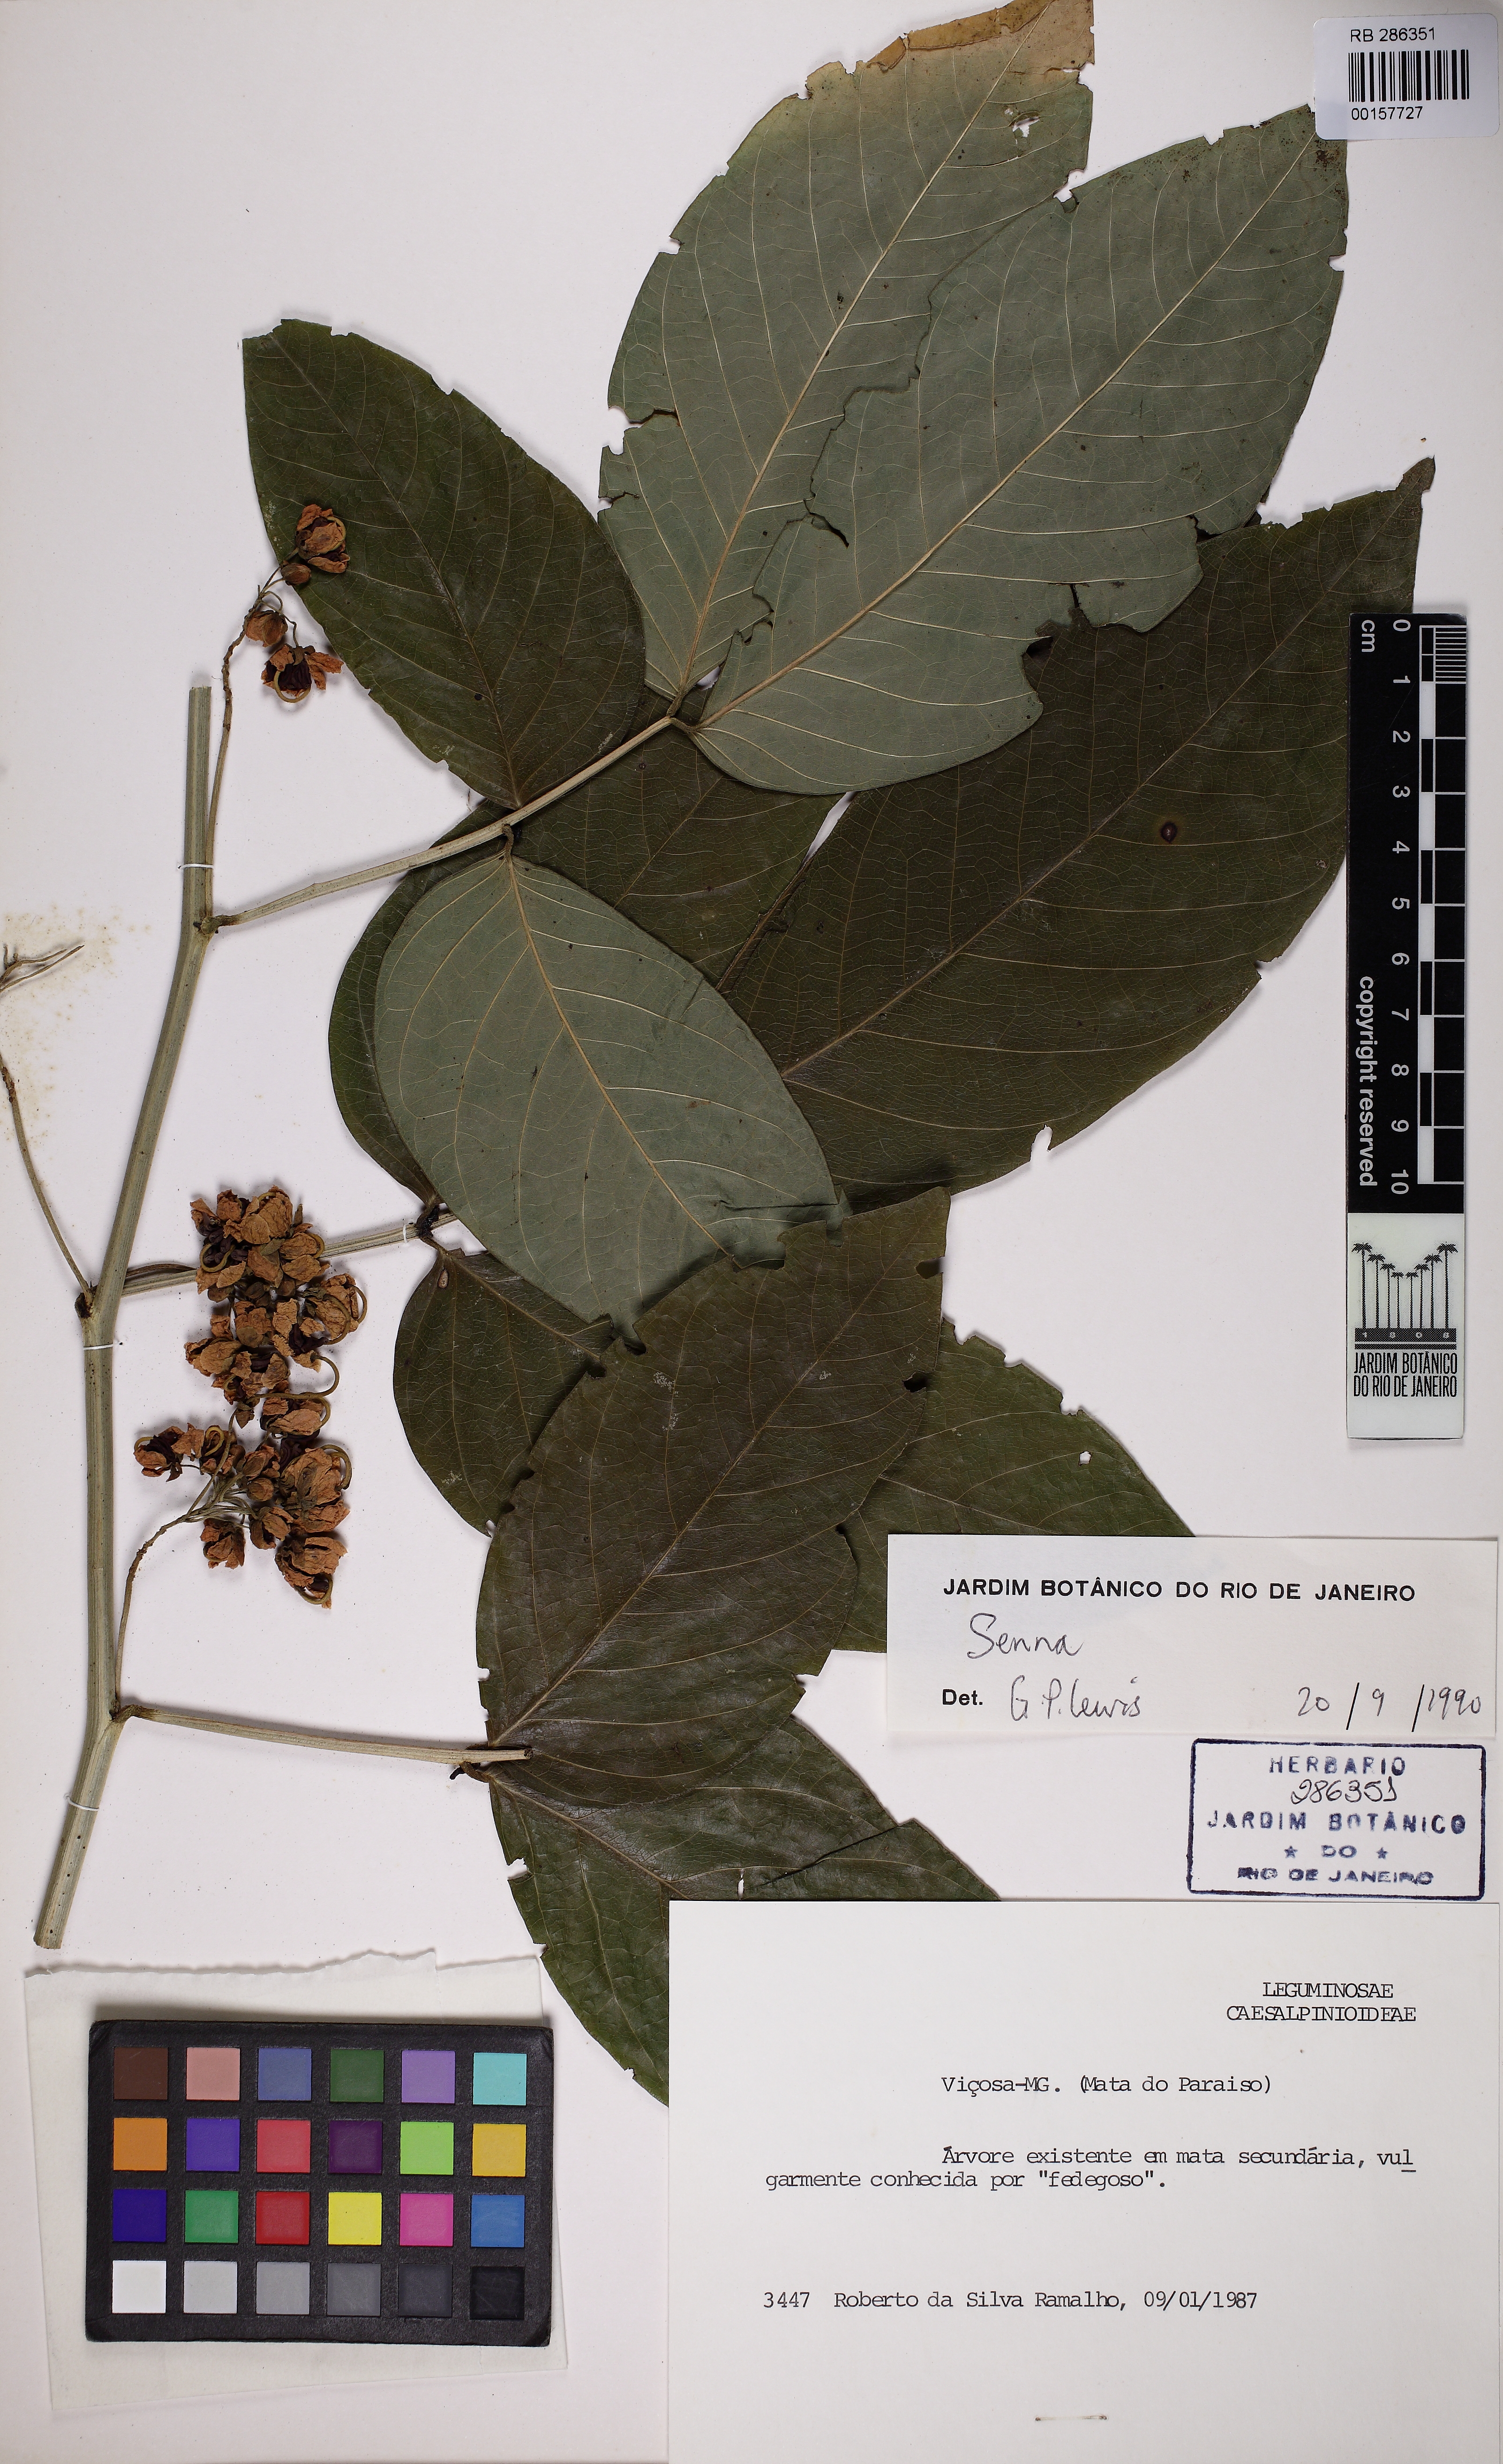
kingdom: Plantae
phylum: Tracheophyta
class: Magnoliopsida
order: Fabales
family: Fabaceae
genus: Senna
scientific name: Senna affinis
